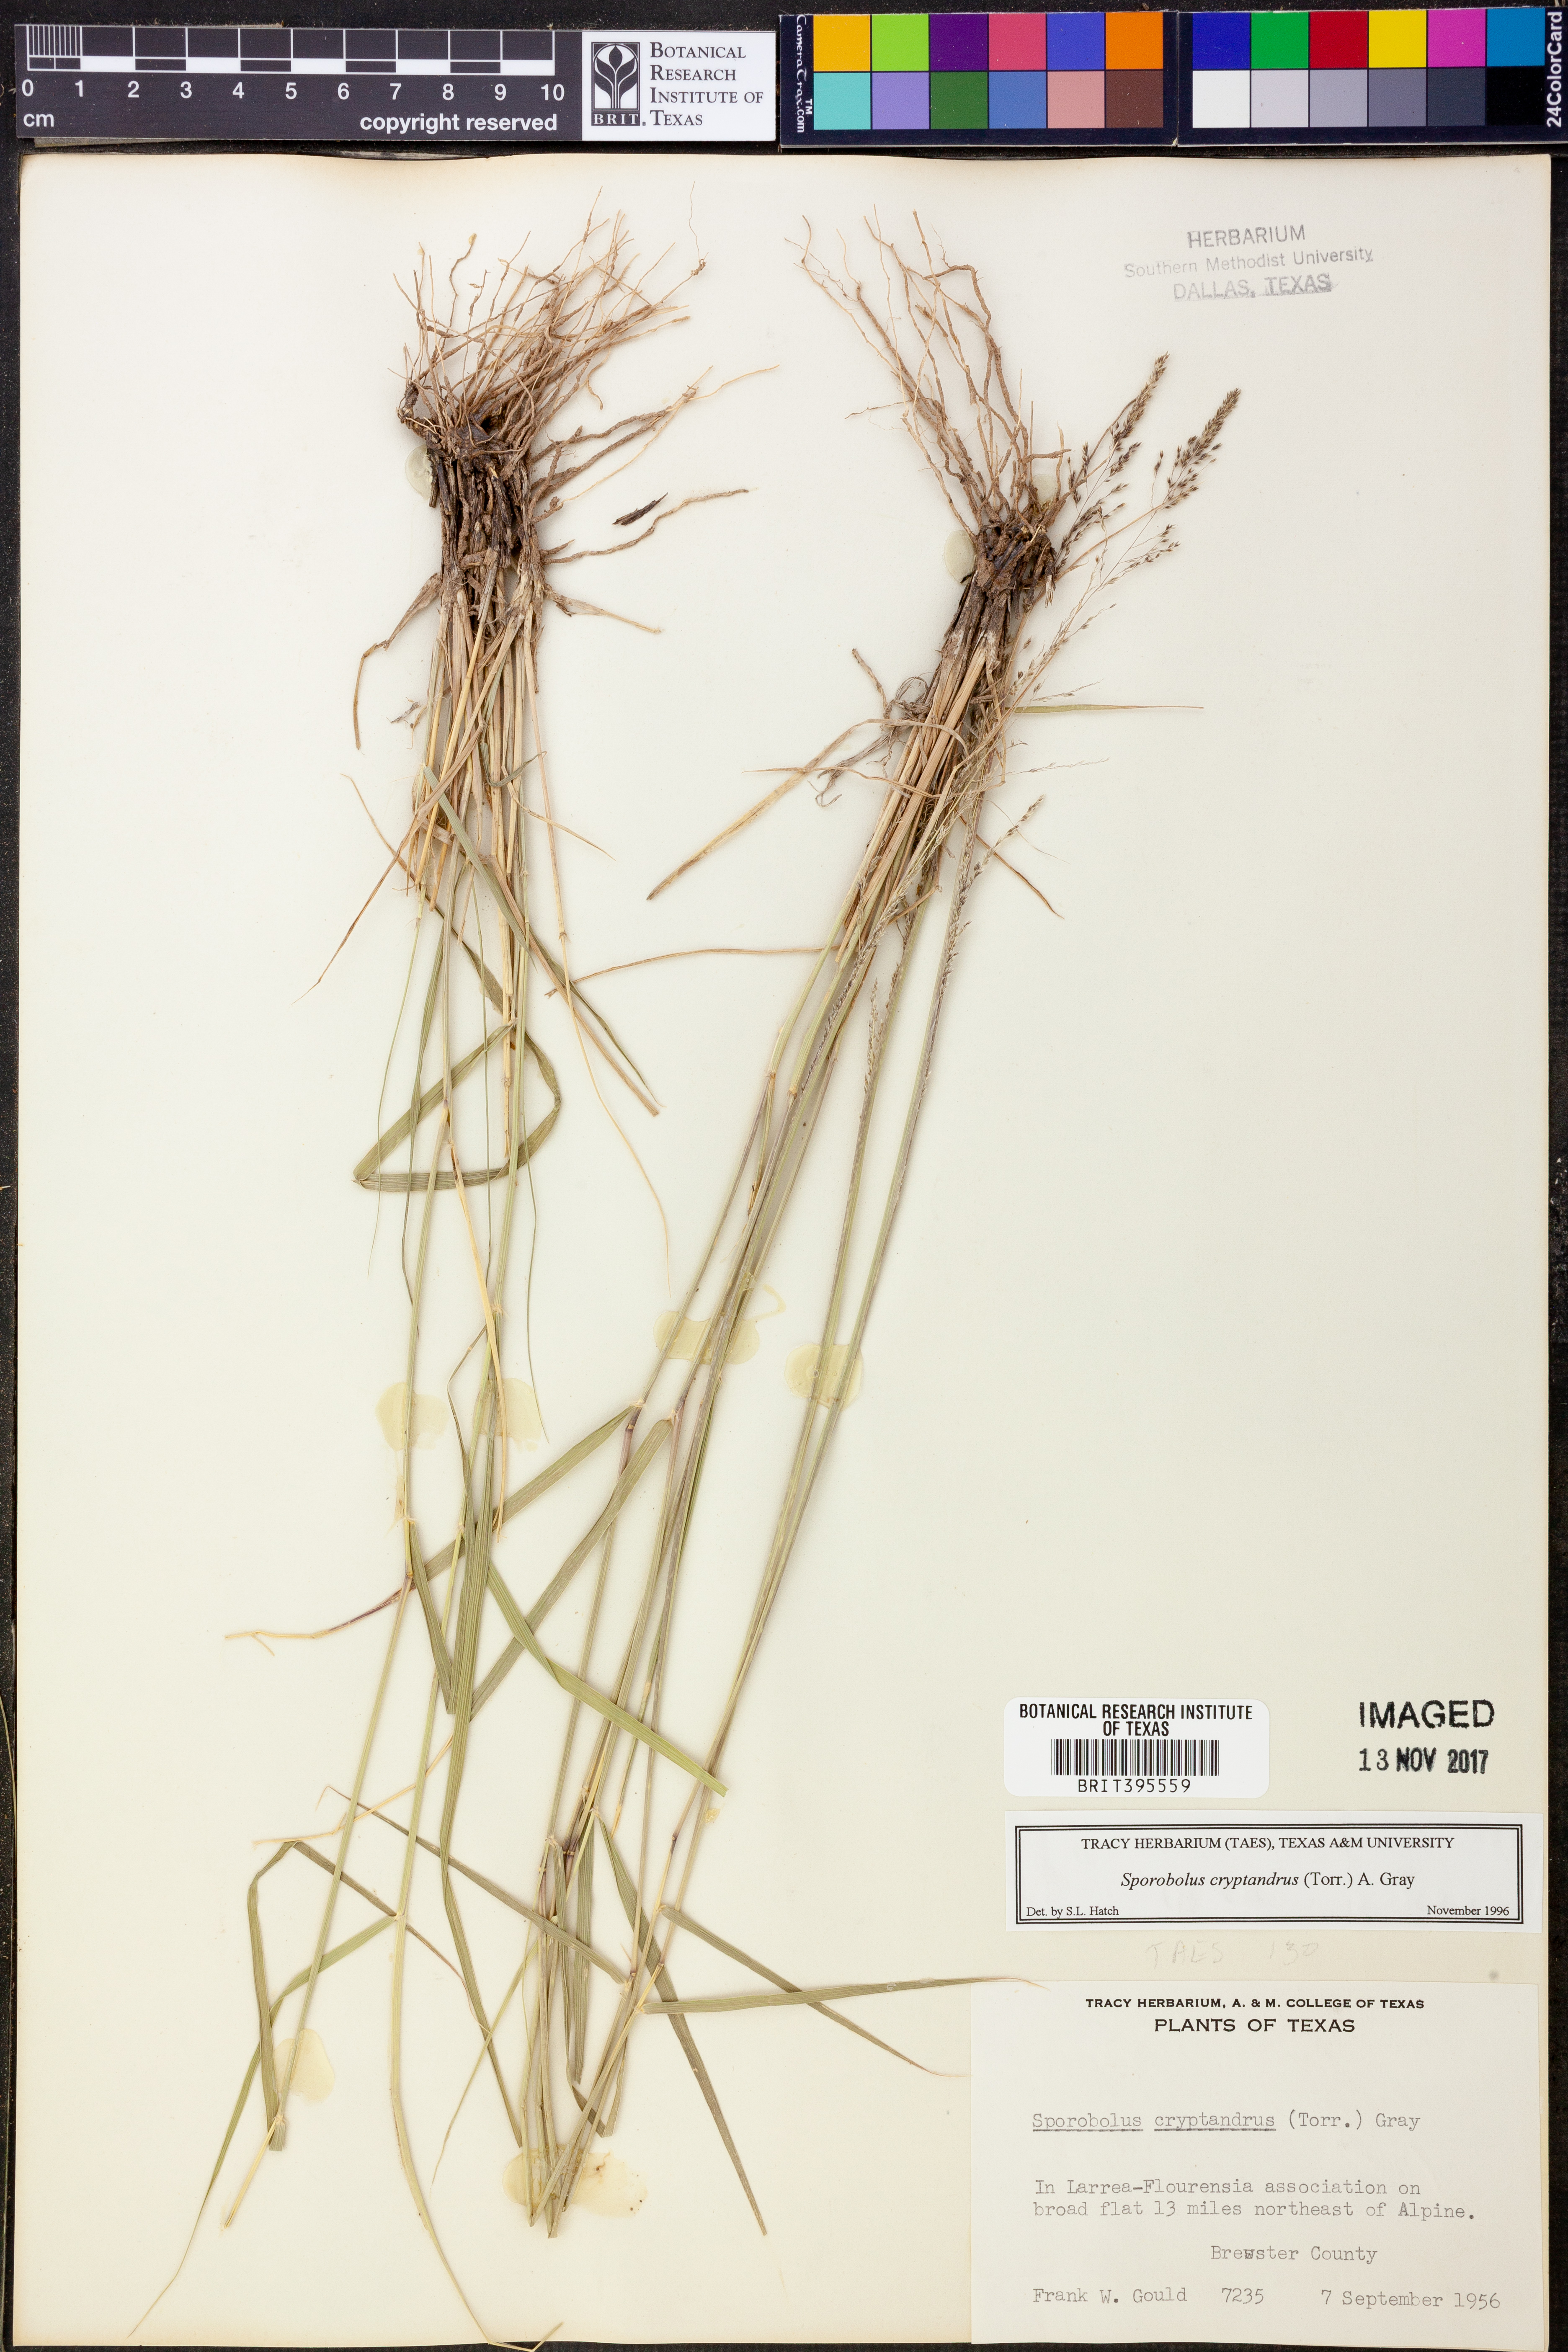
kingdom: Plantae
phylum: Tracheophyta
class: Liliopsida
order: Poales
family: Poaceae
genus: Sporobolus
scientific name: Sporobolus cryptandrus
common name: Sand dropseed
